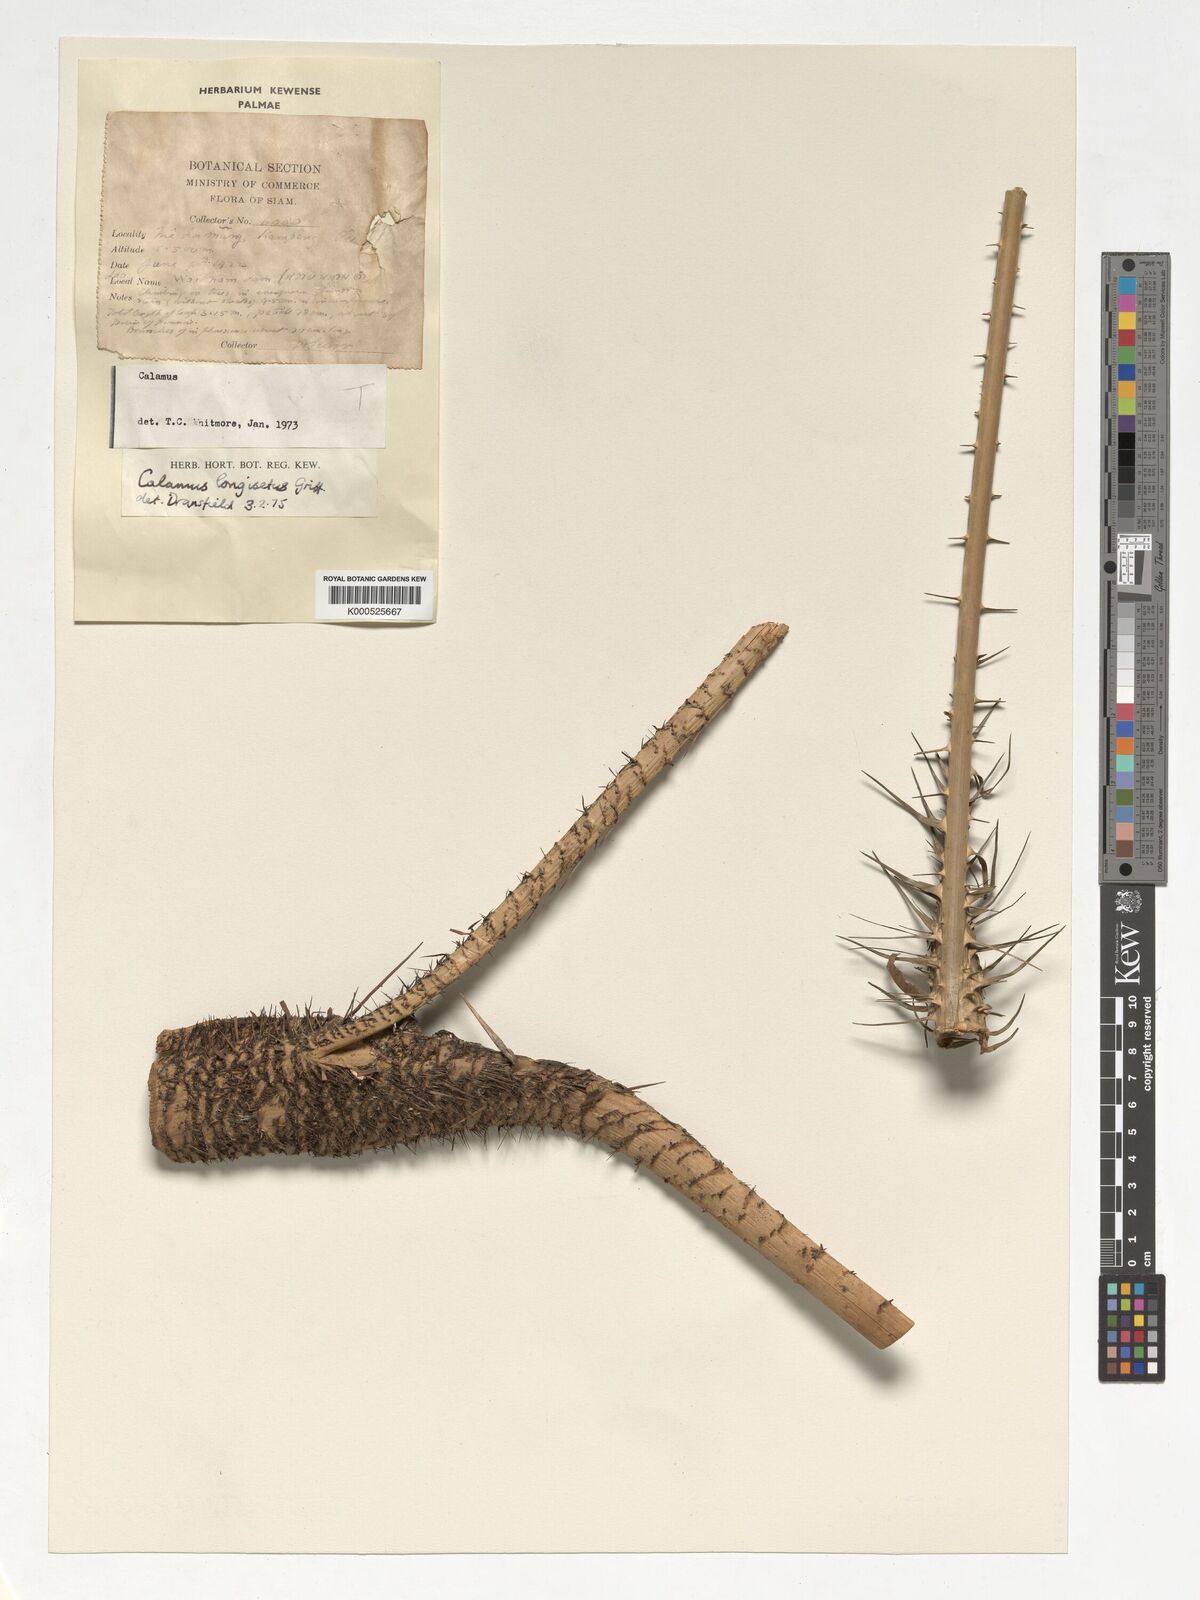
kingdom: Plantae
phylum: Tracheophyta
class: Liliopsida
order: Arecales
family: Arecaceae
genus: Calamus
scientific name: Calamus longisetus
